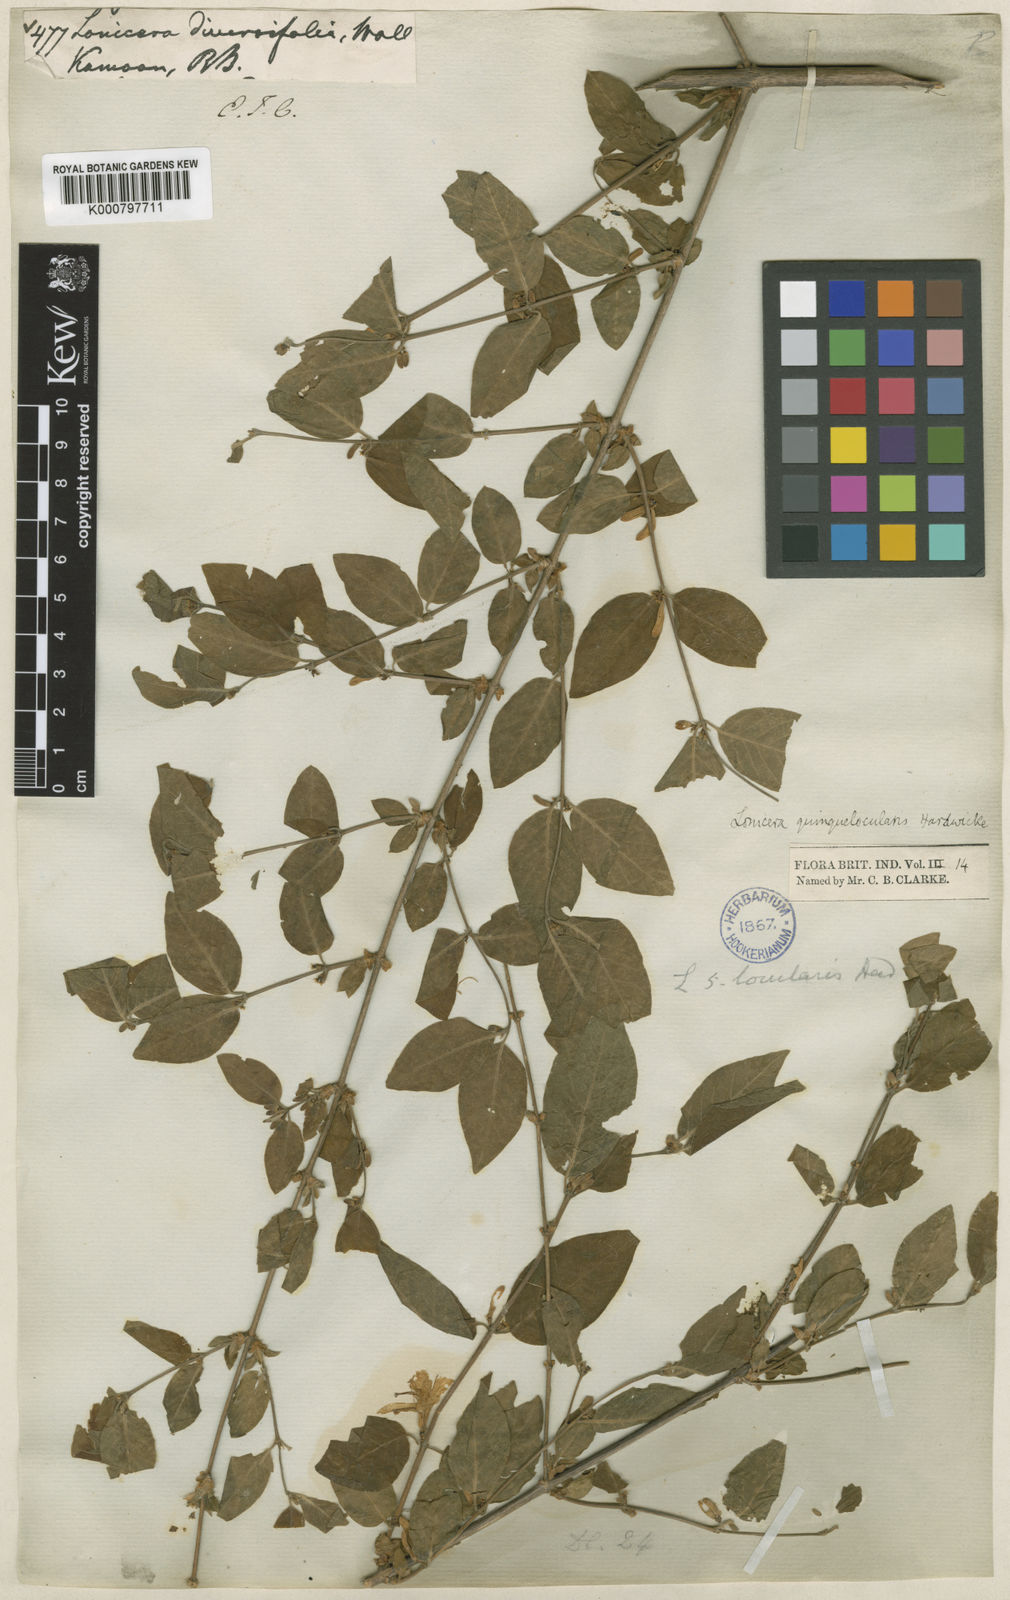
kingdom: Plantae
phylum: Tracheophyta
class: Magnoliopsida
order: Dipsacales
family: Caprifoliaceae
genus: Lonicera
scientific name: Lonicera quinquelocularis
